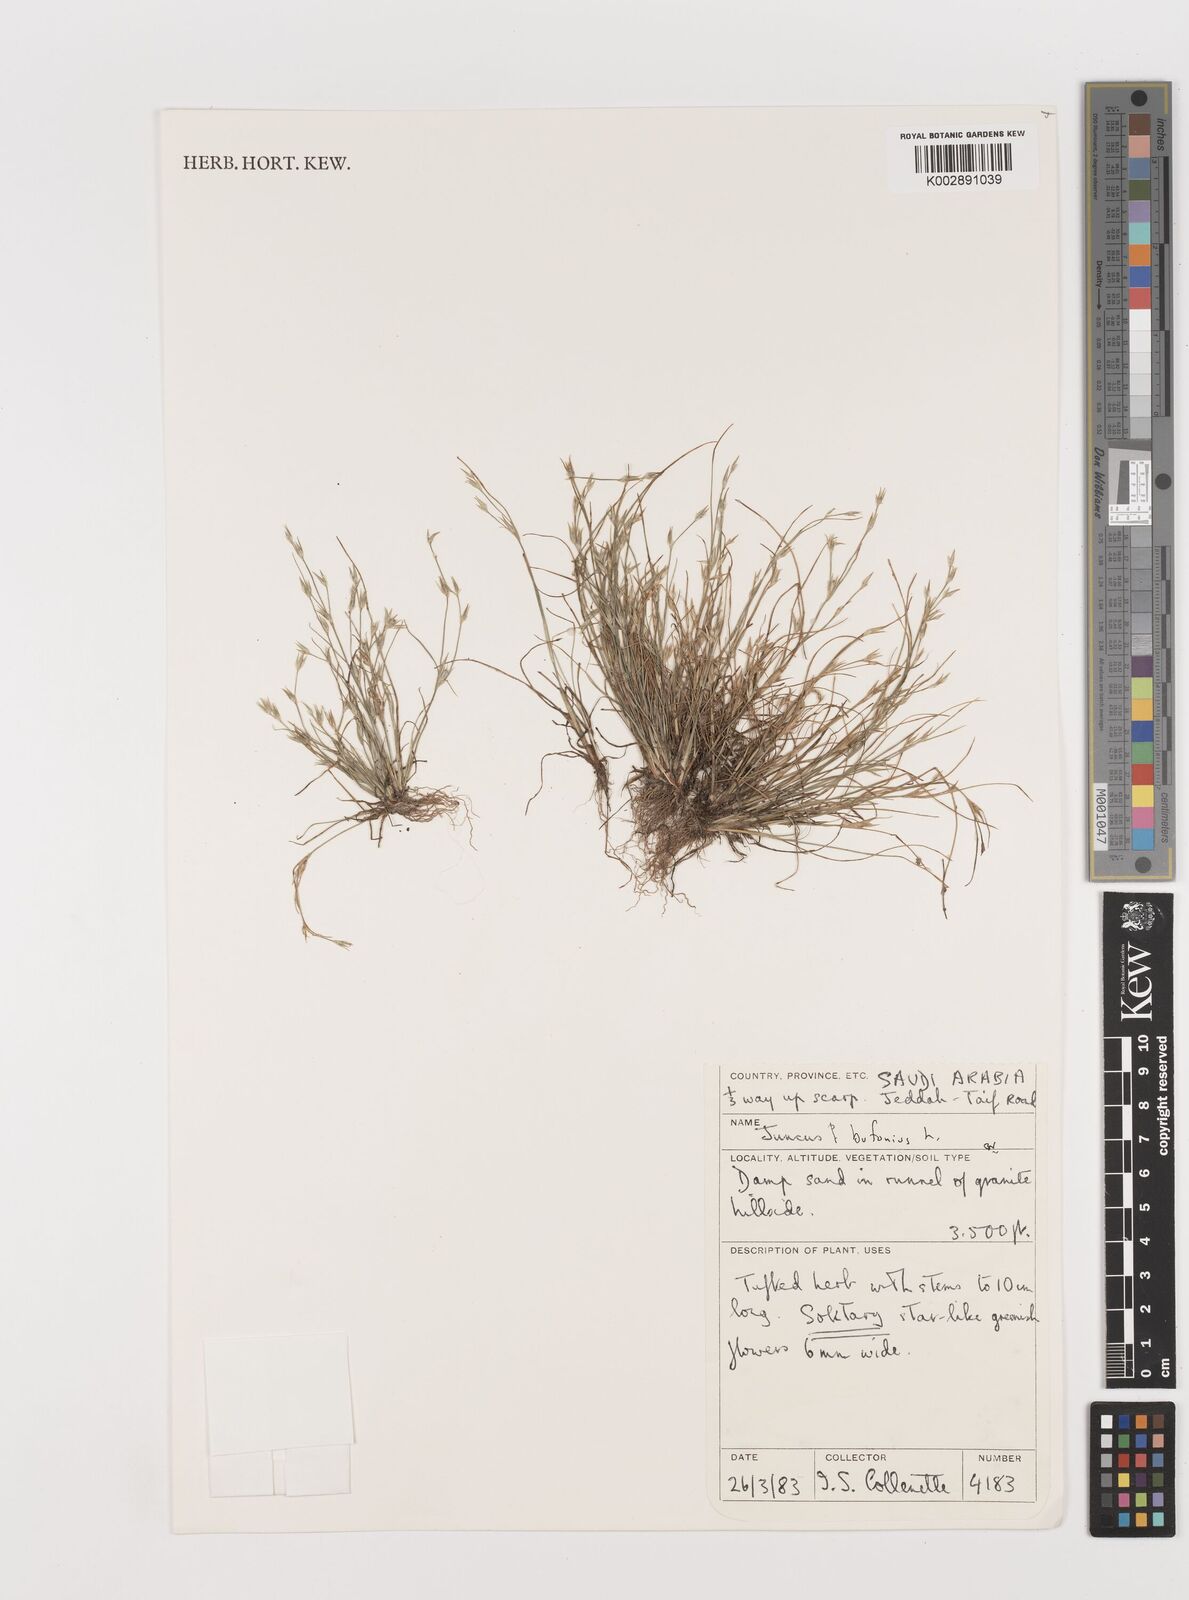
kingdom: Plantae
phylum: Tracheophyta
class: Liliopsida
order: Poales
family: Juncaceae
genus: Juncus
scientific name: Juncus bufonius
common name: Toad rush
